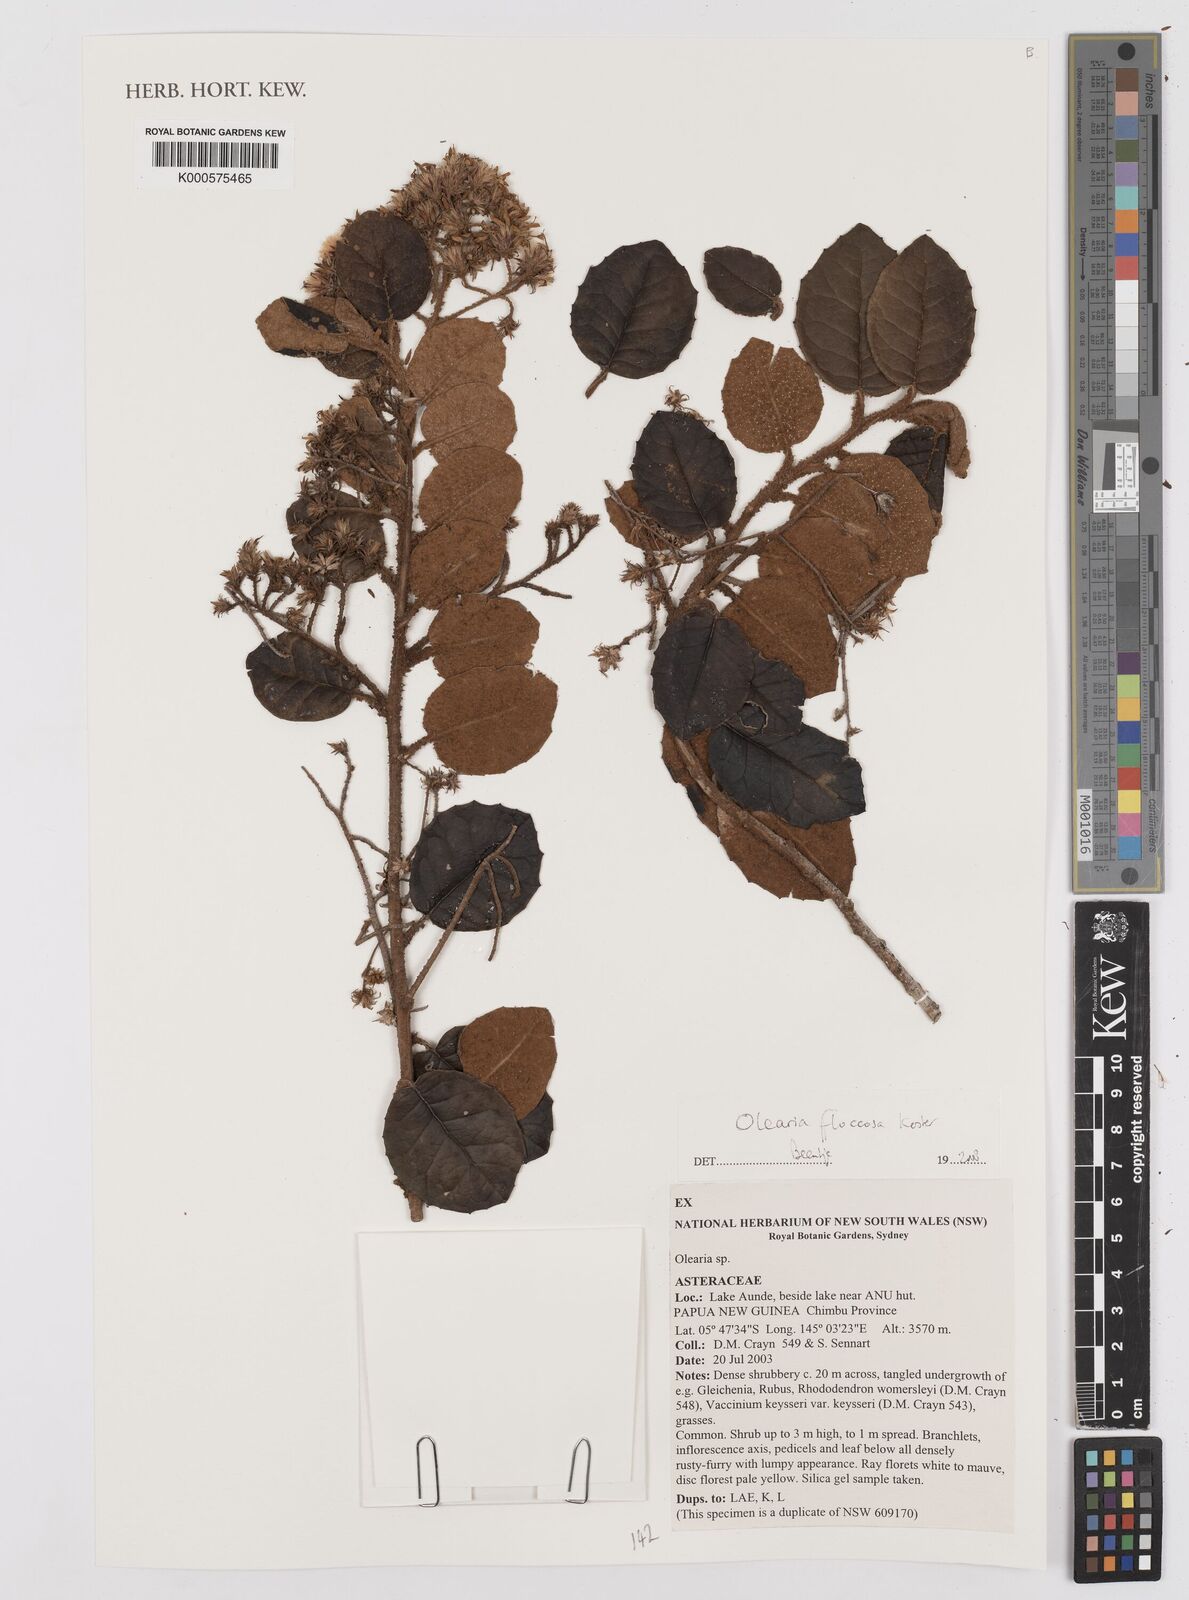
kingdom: Plantae
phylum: Tracheophyta
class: Magnoliopsida
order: Asterales
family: Asteraceae
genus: Olearia
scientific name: Olearia floccosa
